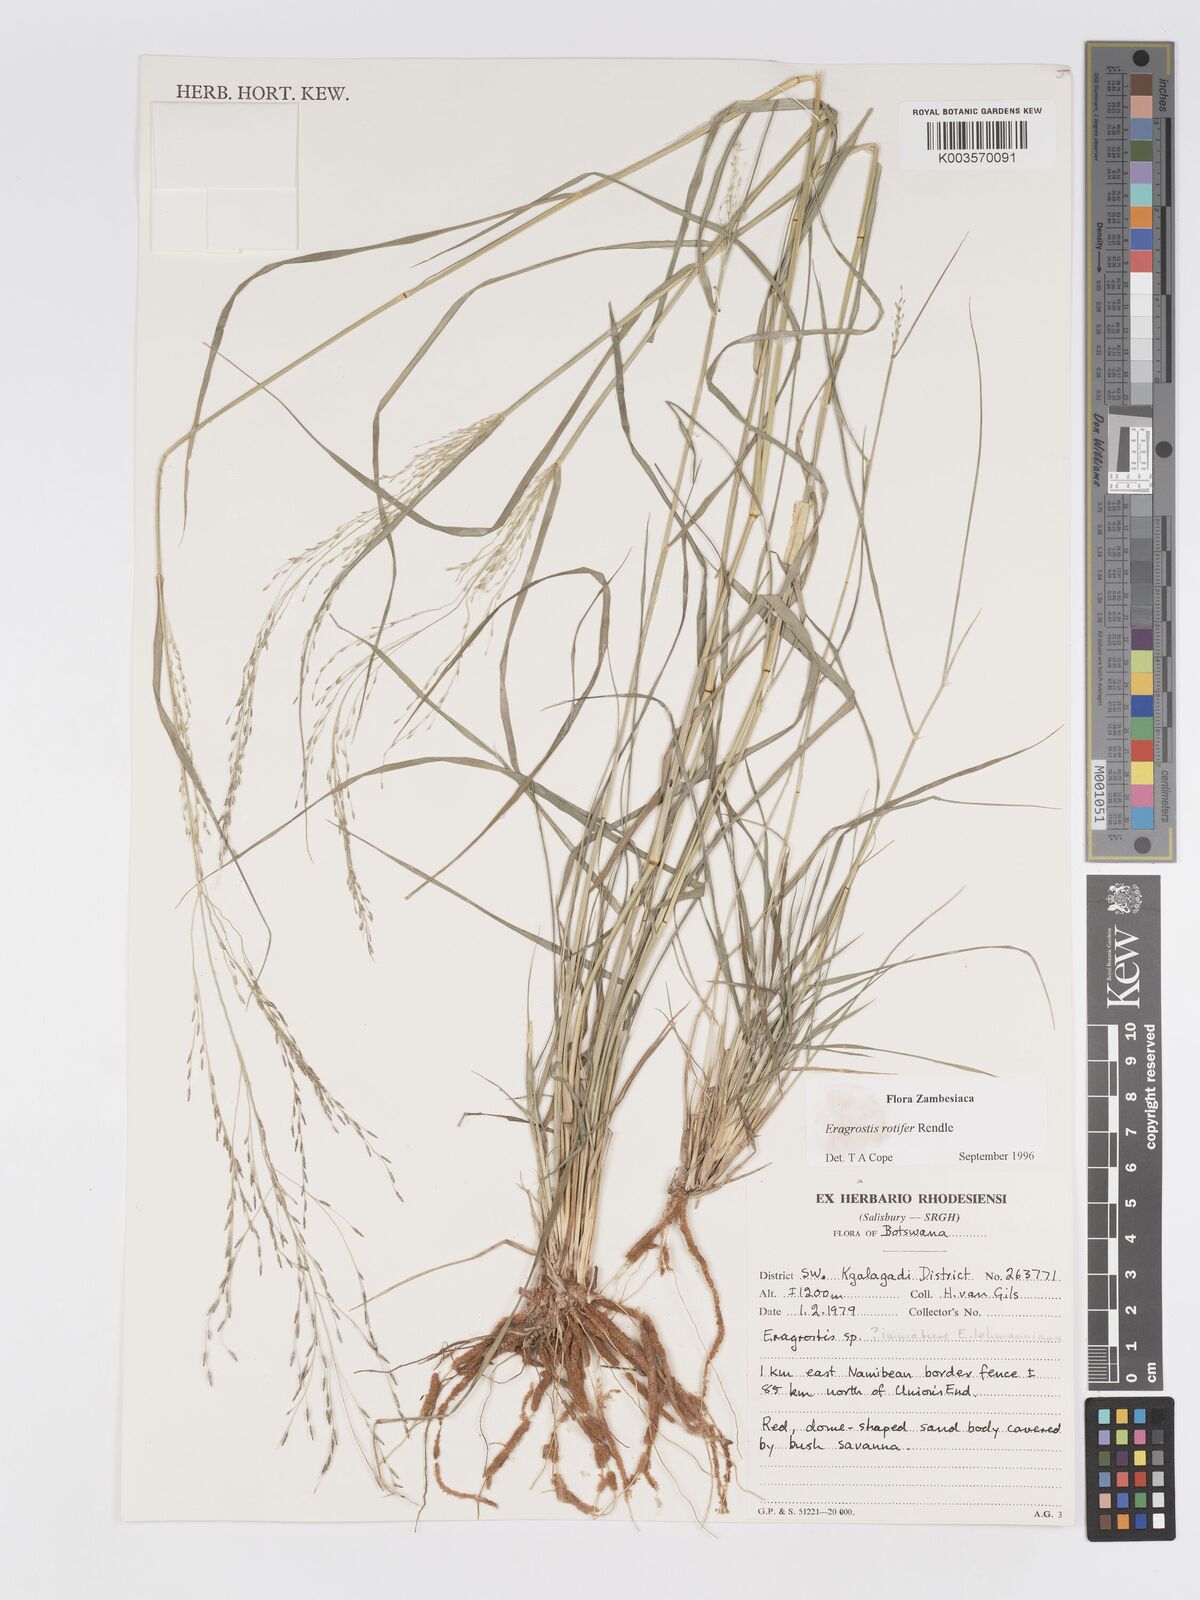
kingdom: Plantae
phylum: Tracheophyta
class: Liliopsida
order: Poales
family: Poaceae
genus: Eragrostis
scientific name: Eragrostis rotifer
